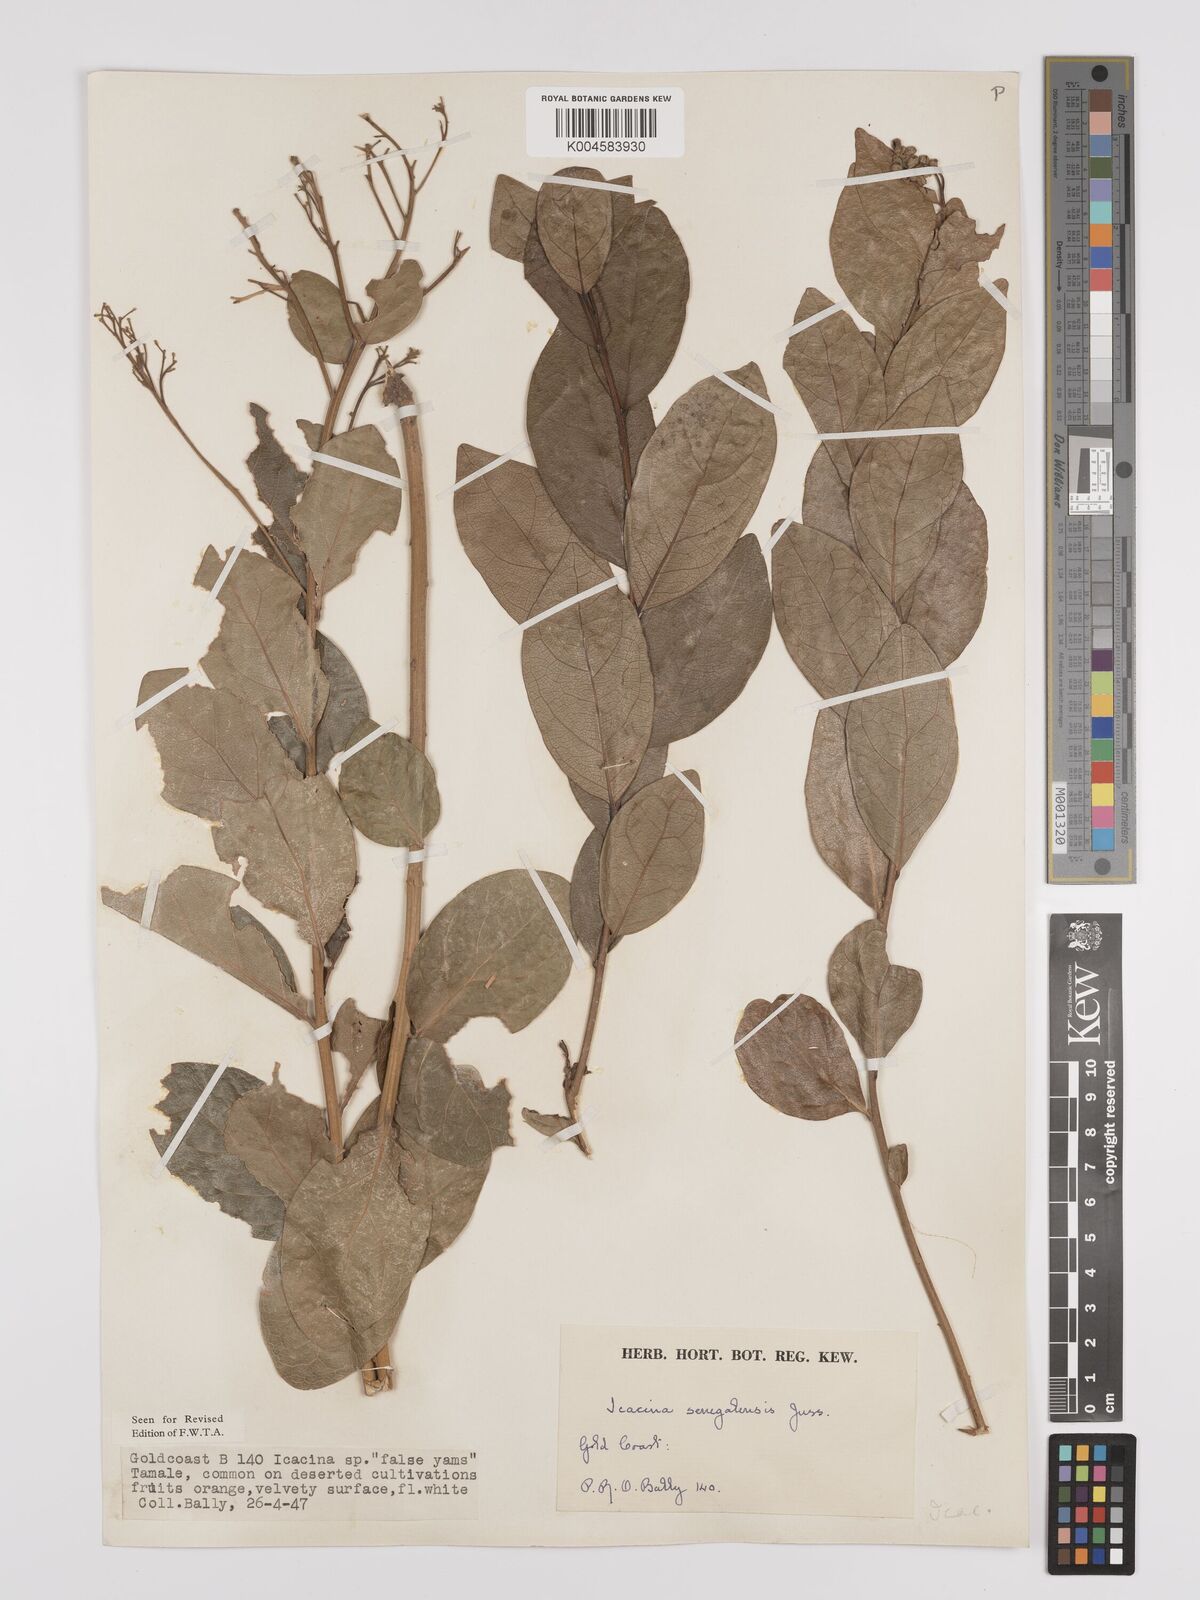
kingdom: Plantae
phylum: Tracheophyta
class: Magnoliopsida
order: Icacinales
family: Icacinaceae
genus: Icacina
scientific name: Icacina oliviformis
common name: False yam
